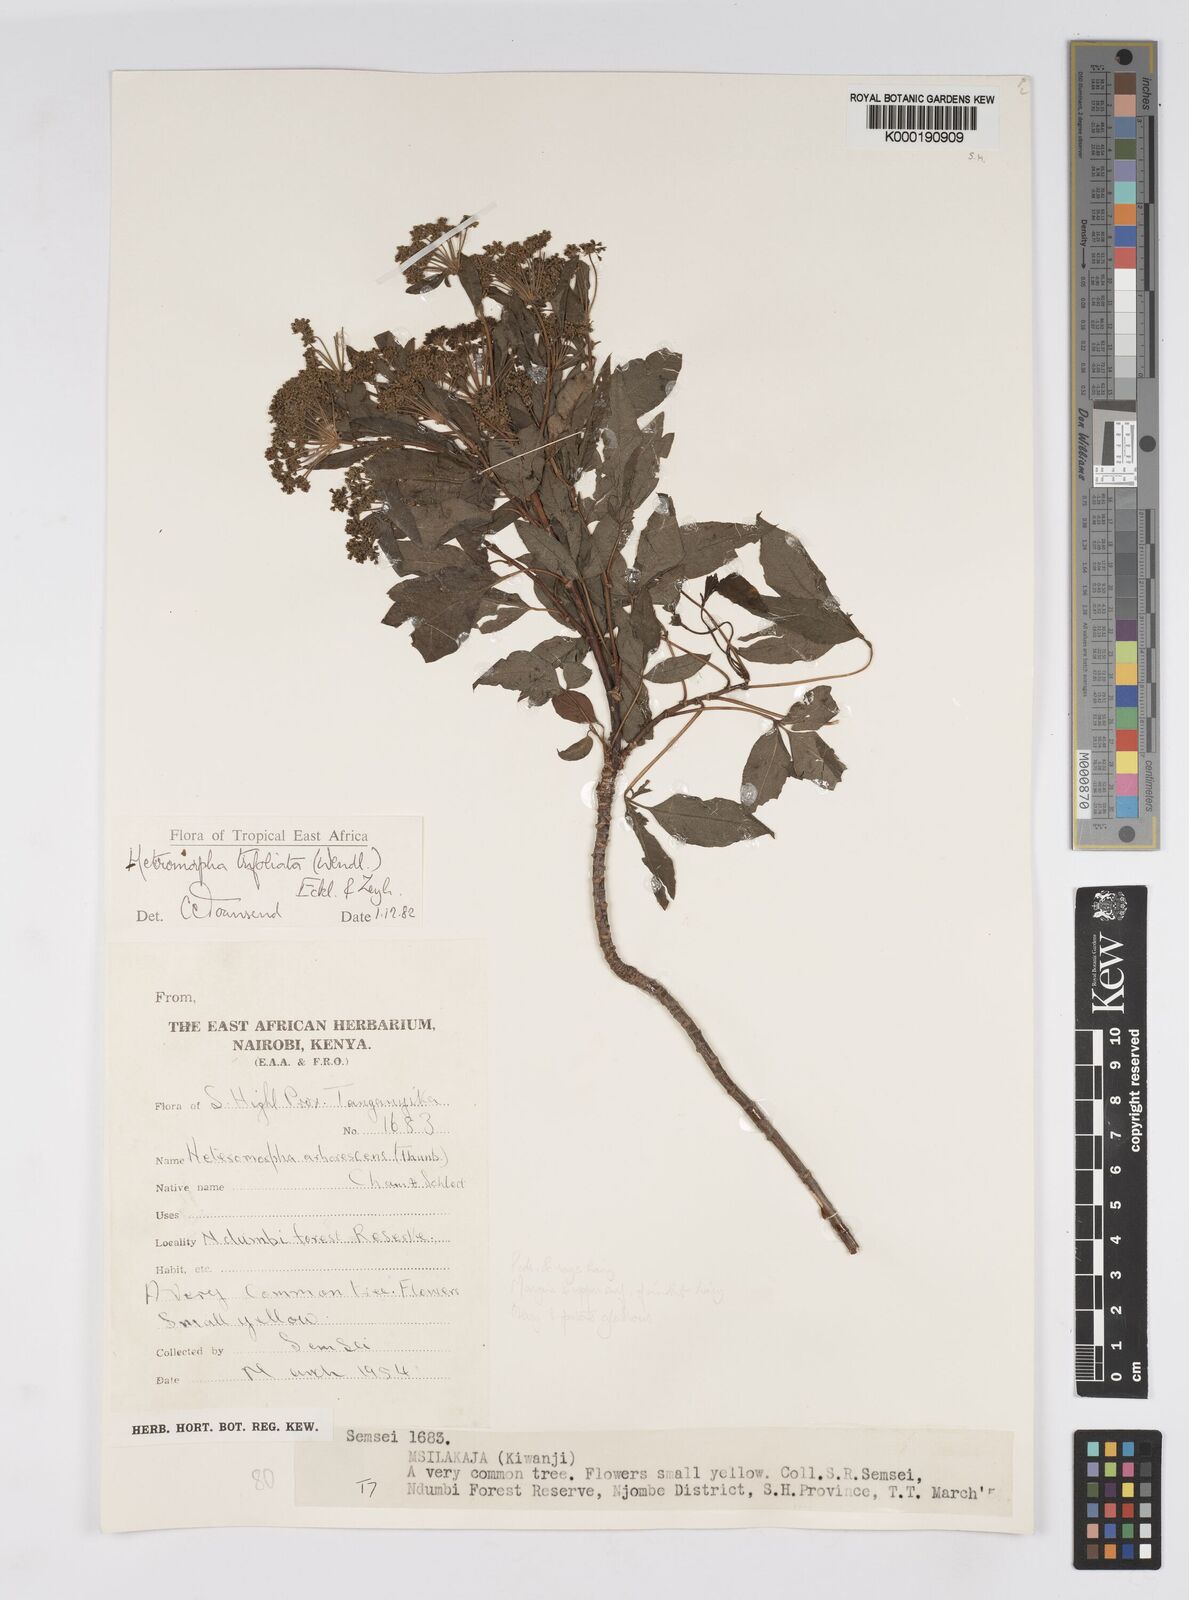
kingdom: Plantae
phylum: Tracheophyta
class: Magnoliopsida
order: Apiales
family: Apiaceae
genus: Heteromorpha
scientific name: Heteromorpha arborescens
